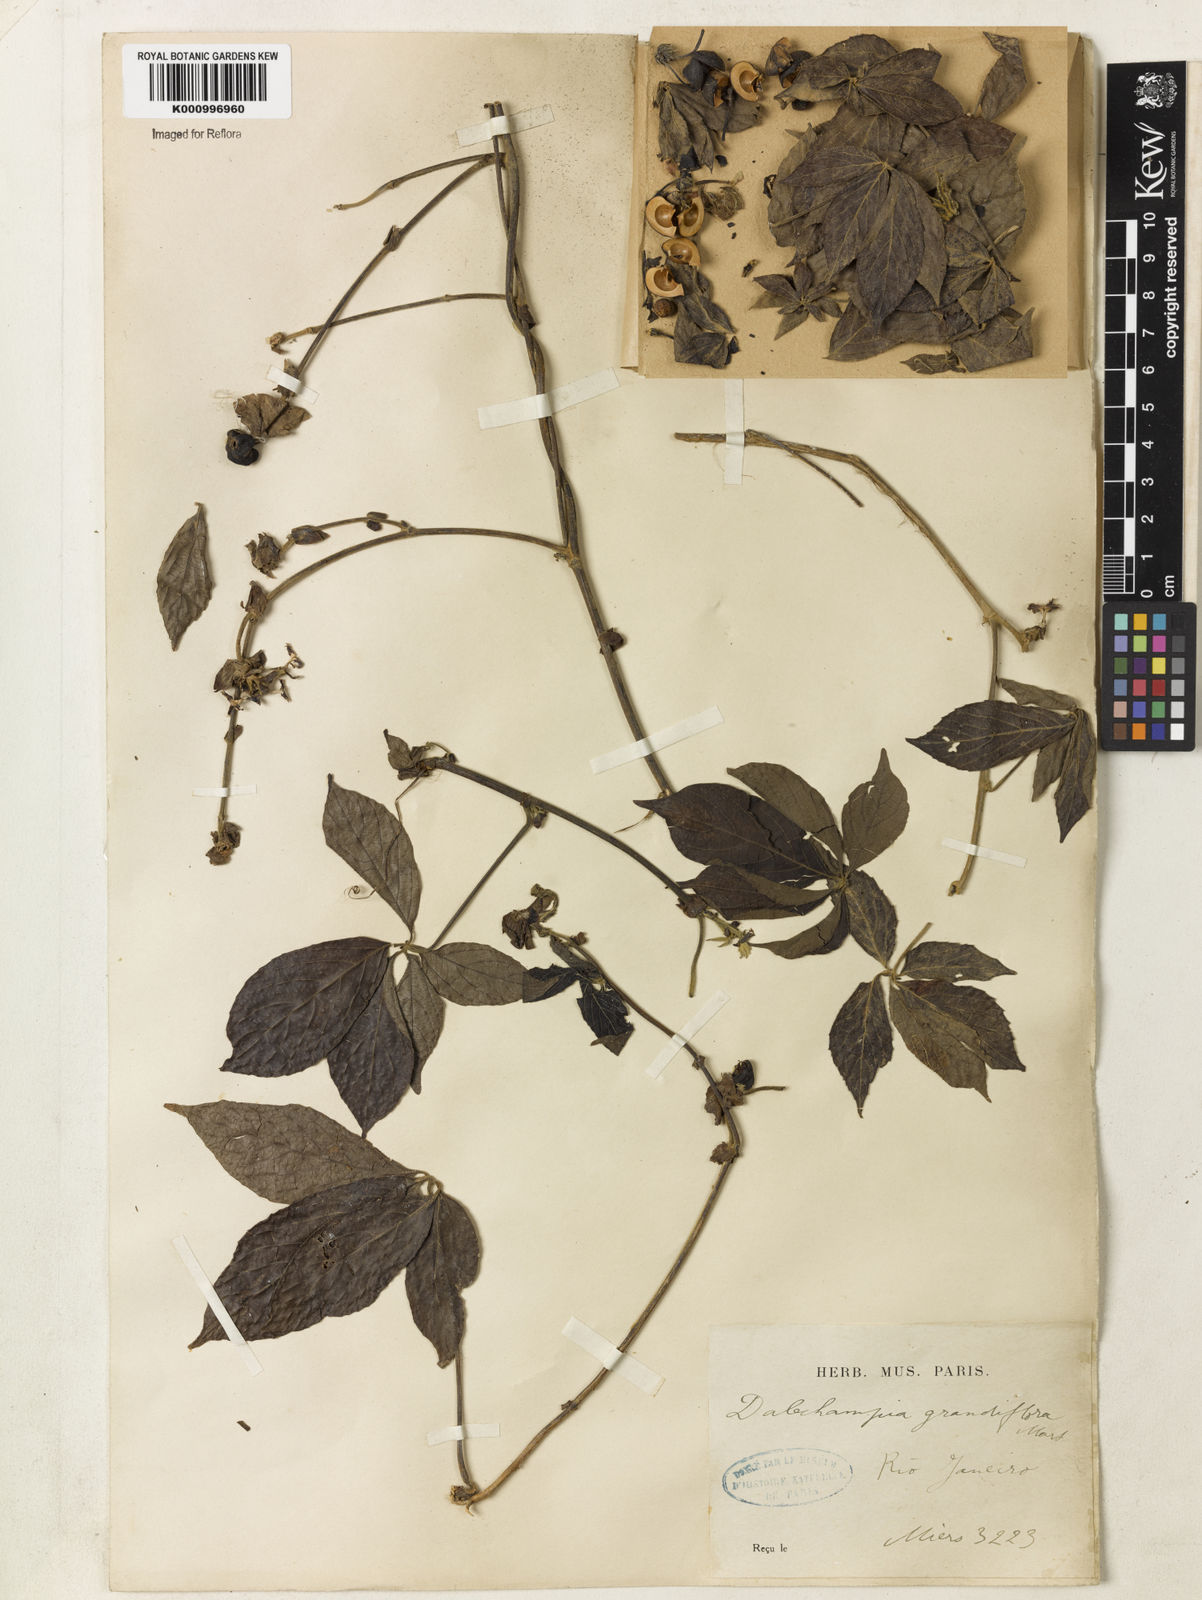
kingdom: Plantae
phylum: Tracheophyta
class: Magnoliopsida
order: Malpighiales
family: Euphorbiaceae
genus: Dalechampia
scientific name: Dalechampia pentaphylla
